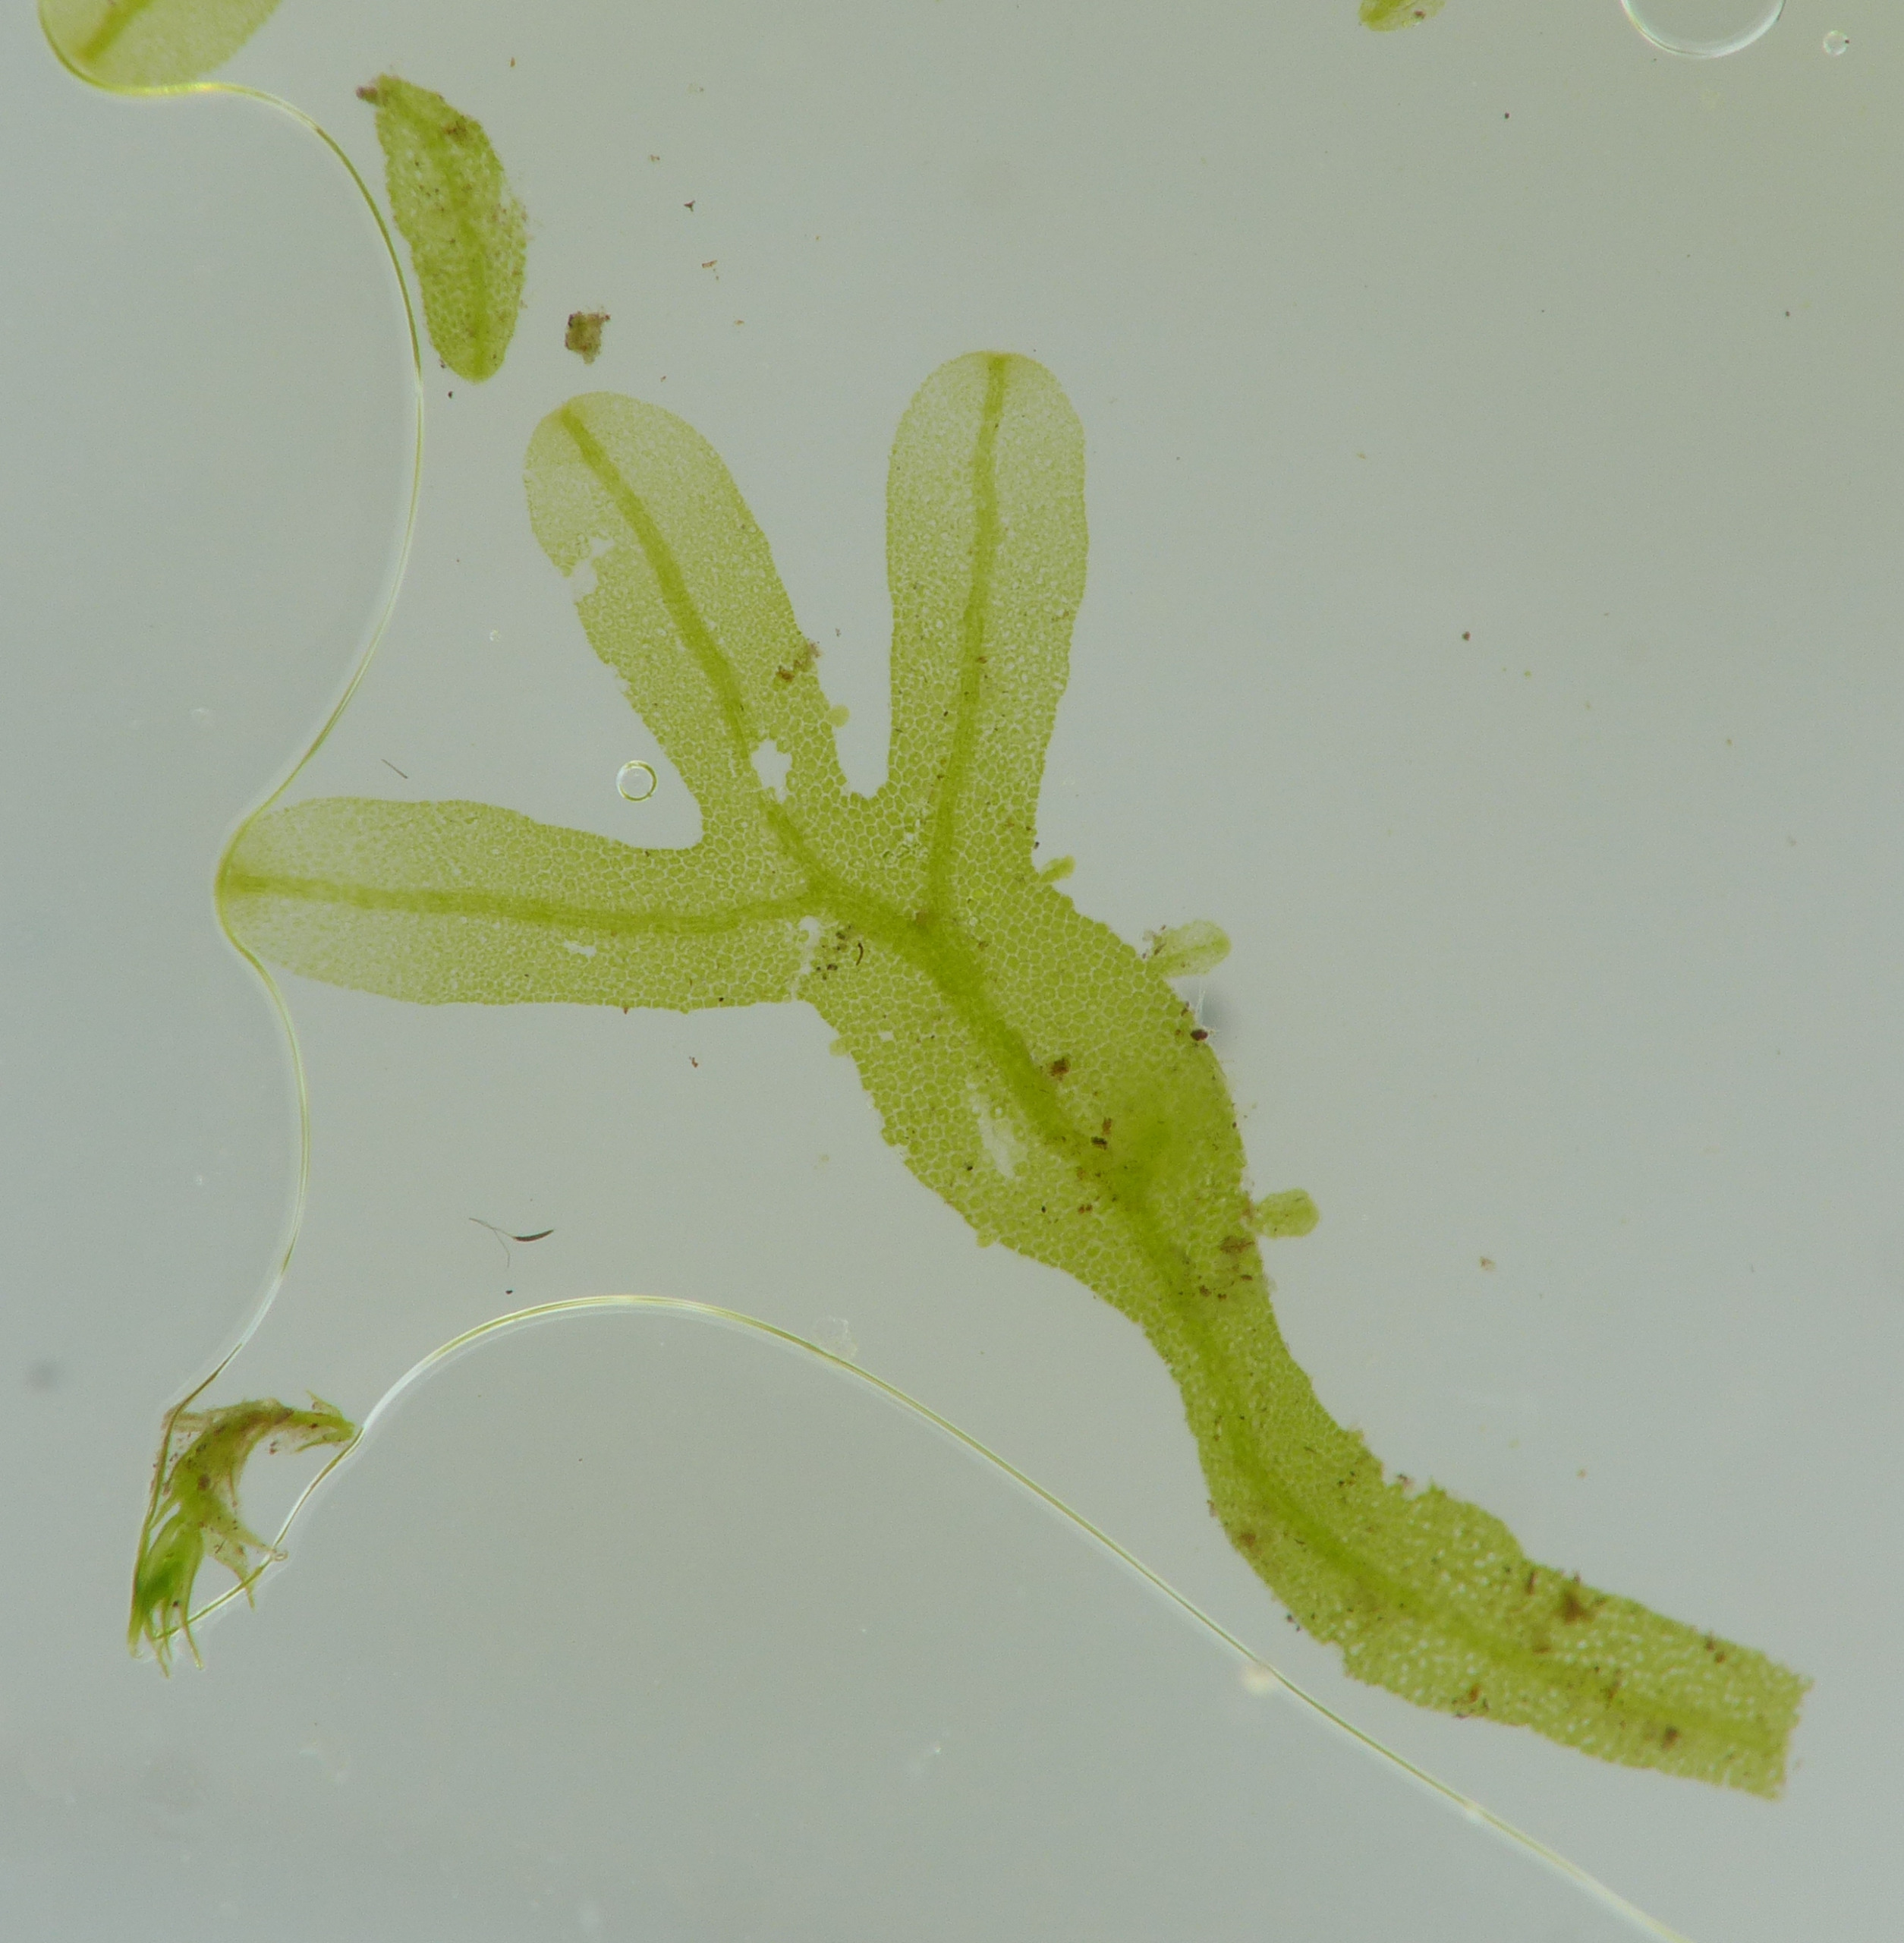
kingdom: Plantae
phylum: Marchantiophyta
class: Jungermanniopsida
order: Metzgeriales
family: Metzgeriaceae
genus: Metzgeria
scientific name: Metzgeria furcata
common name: Almindelig gaffelløv
